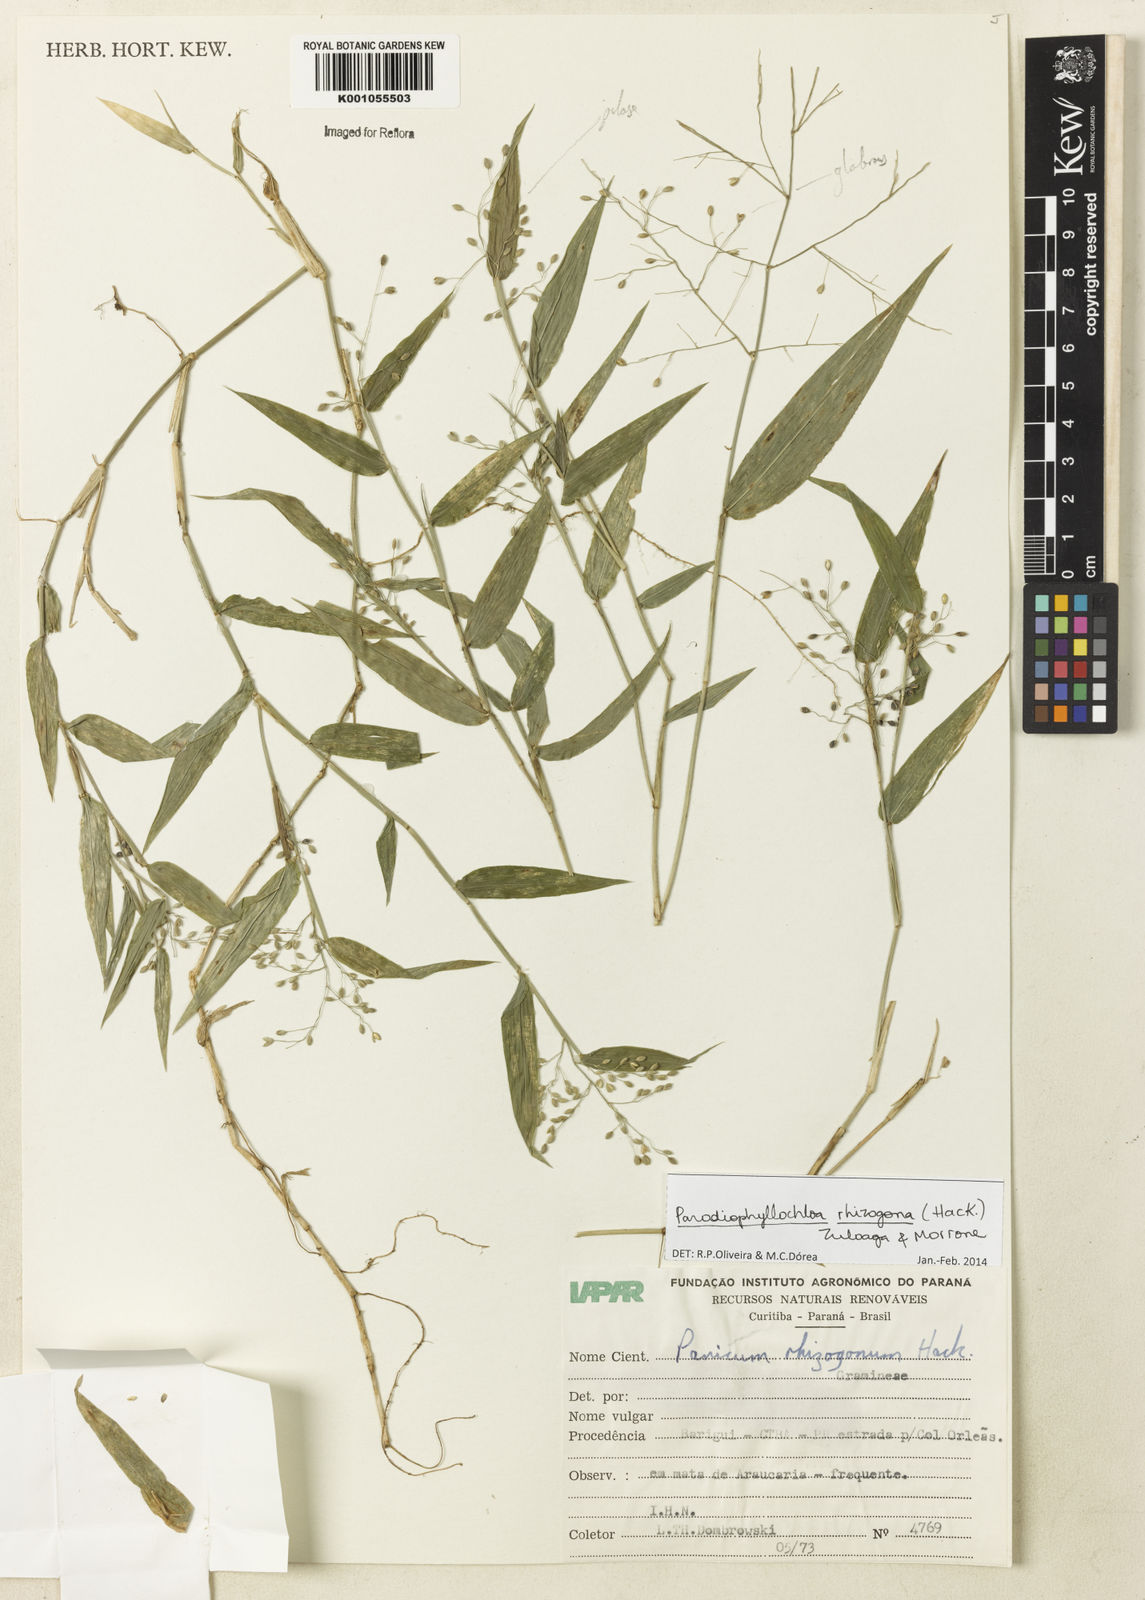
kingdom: Plantae
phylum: Tracheophyta
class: Liliopsida
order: Poales
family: Poaceae
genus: Parodiophyllochloa
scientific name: Parodiophyllochloa rhizogona
